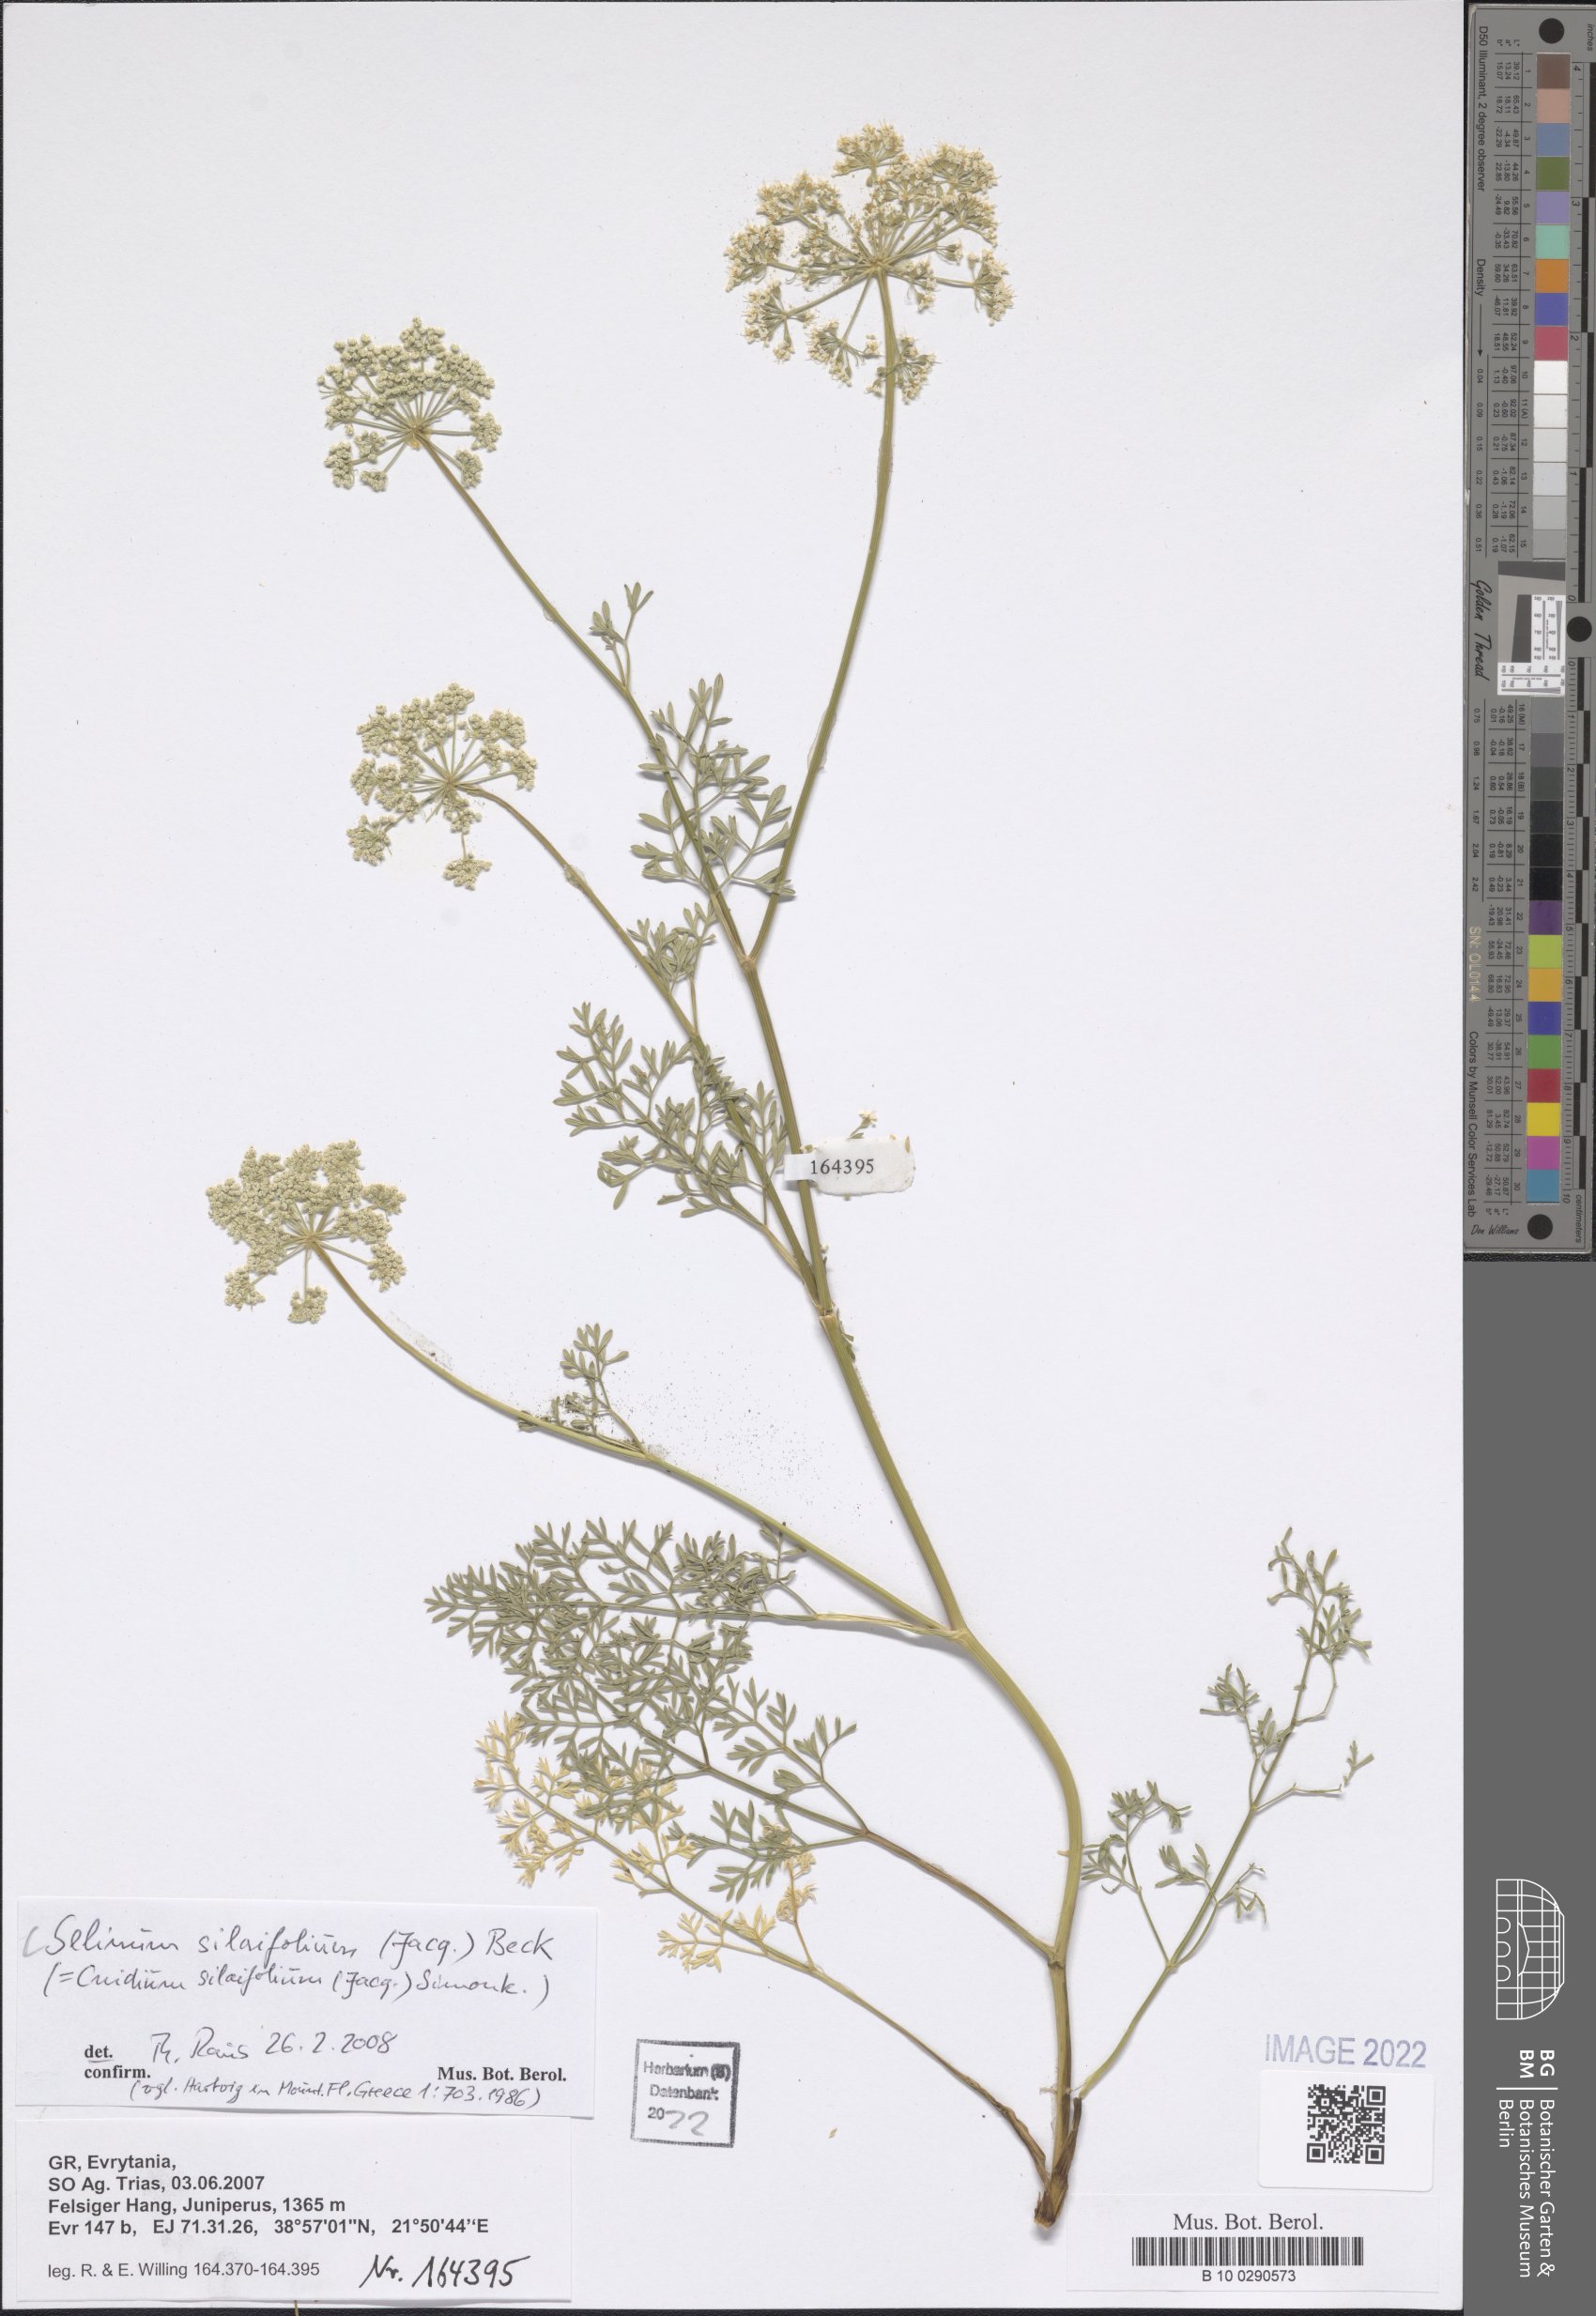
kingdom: Plantae
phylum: Tracheophyta
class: Magnoliopsida
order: Apiales
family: Apiaceae
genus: Katapsuxis
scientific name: Katapsuxis silaifolia
